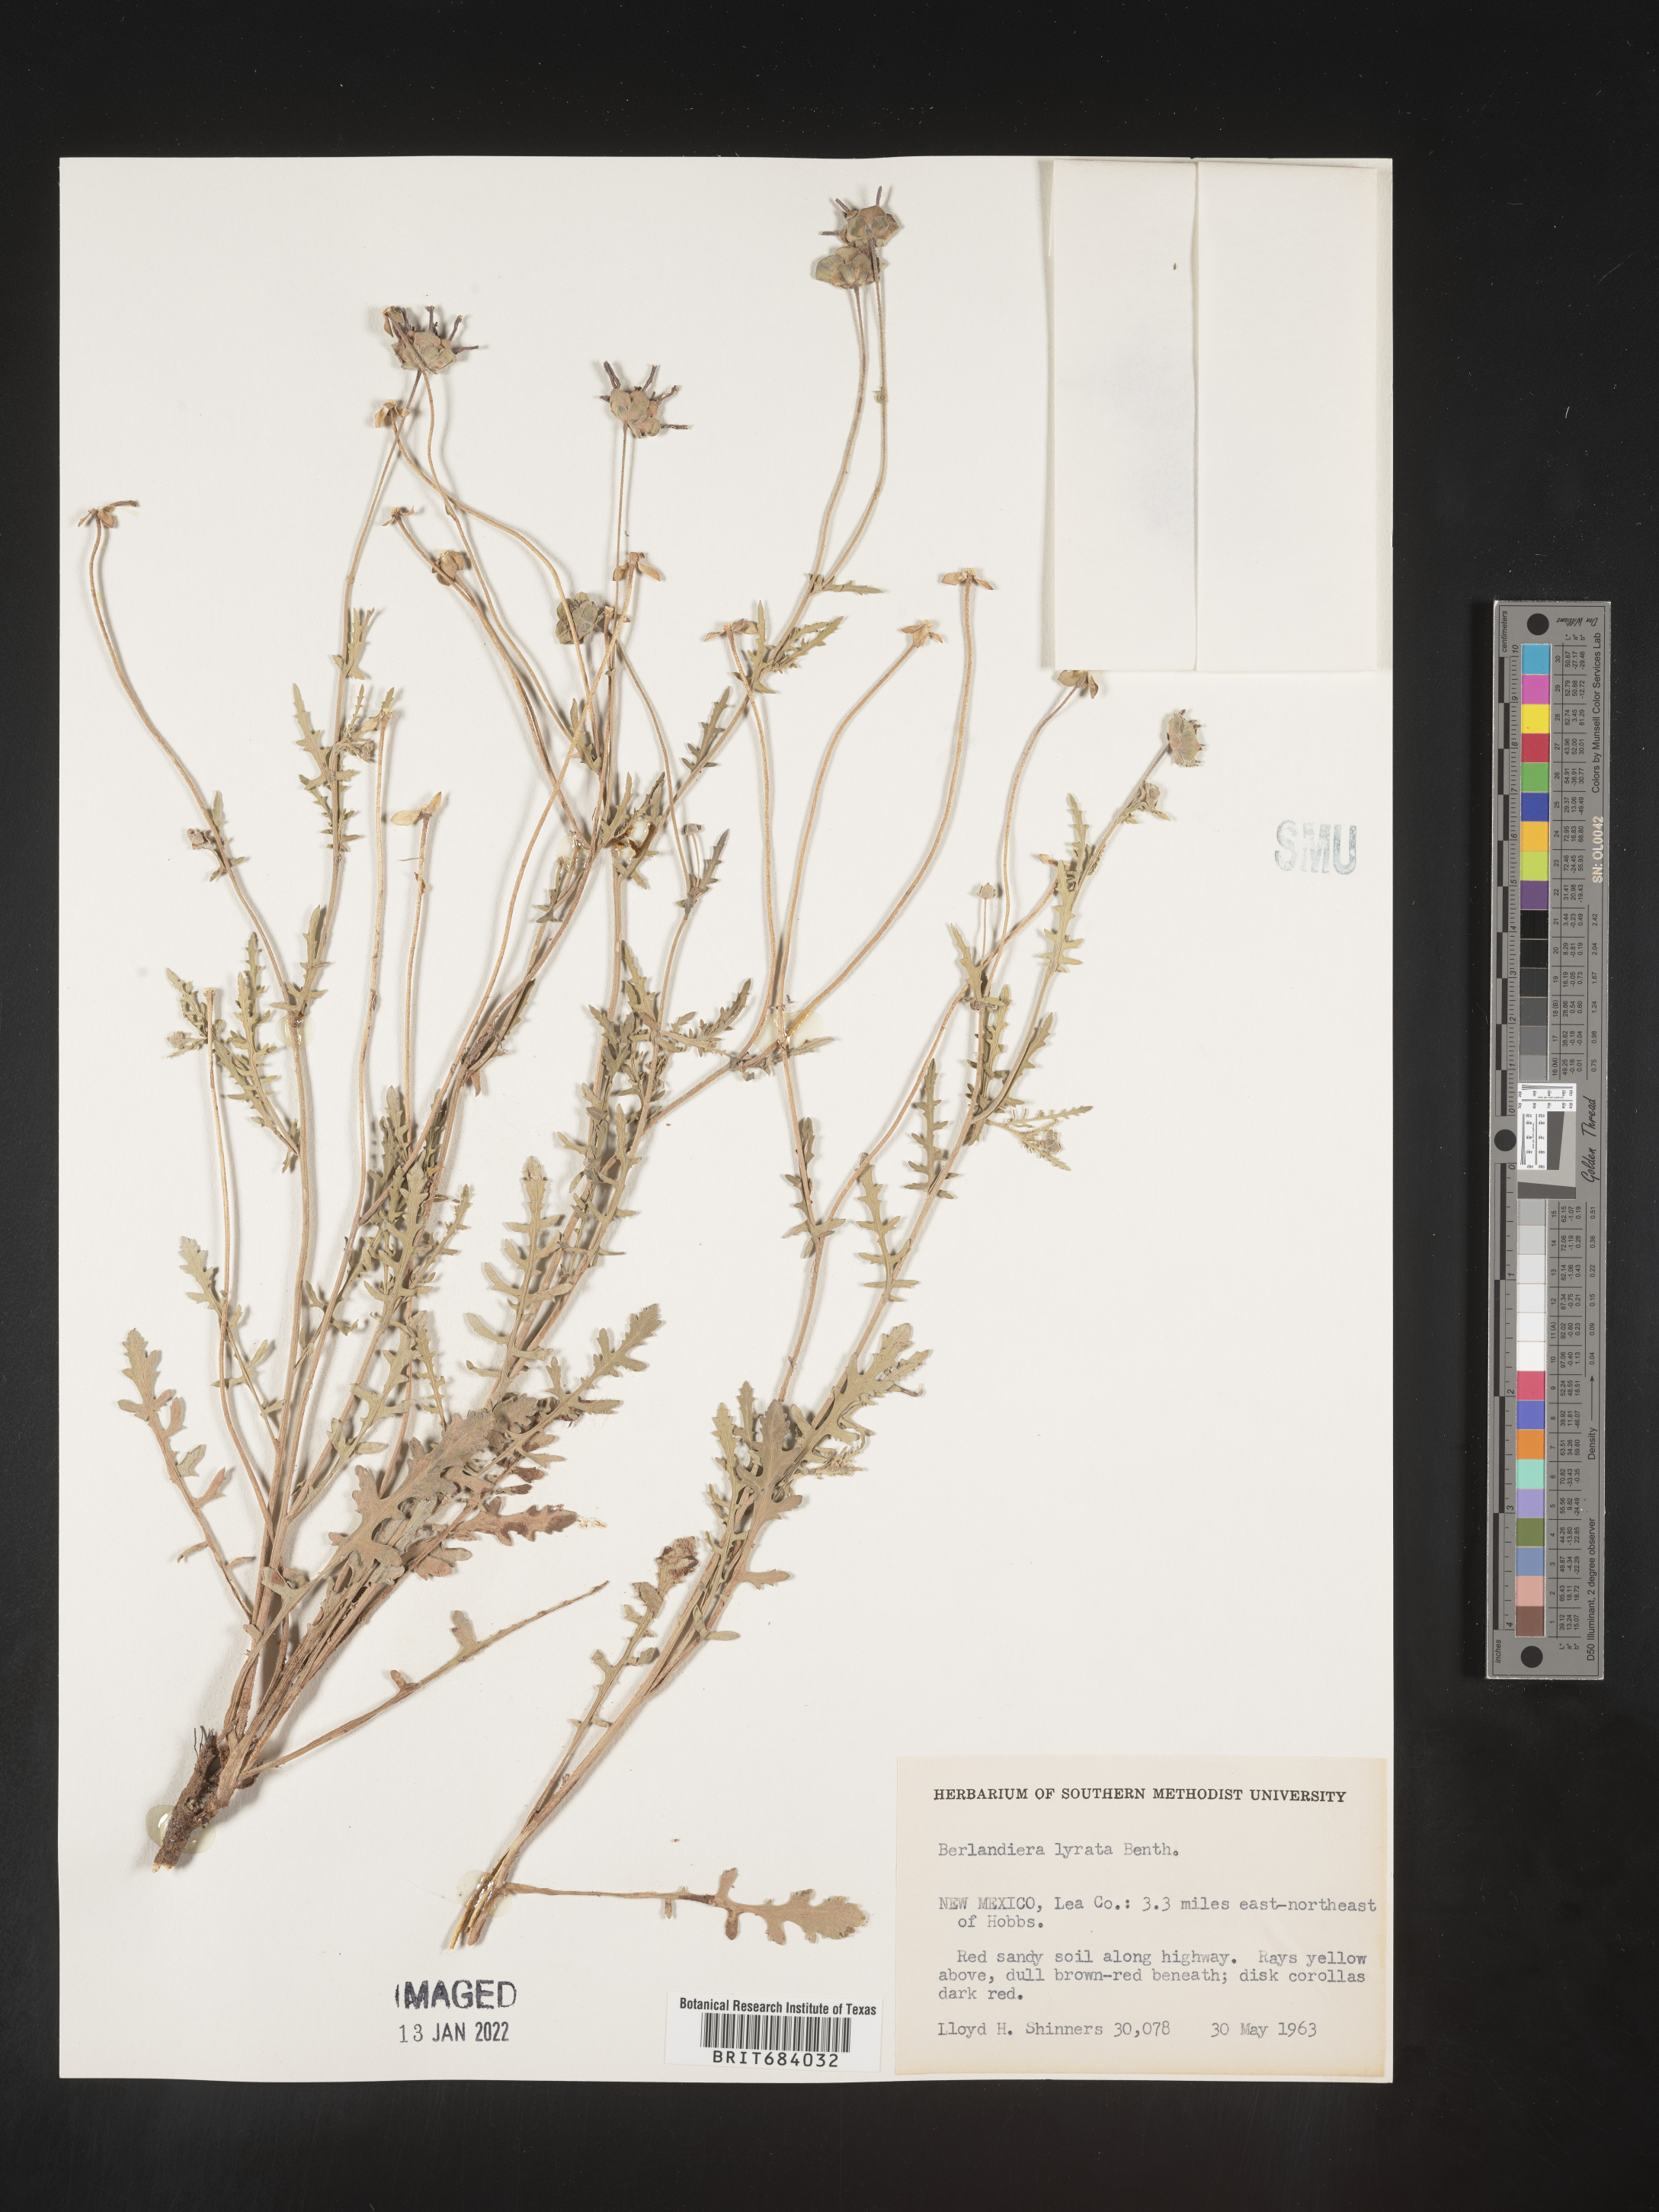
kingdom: Plantae
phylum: Tracheophyta
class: Magnoliopsida
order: Asterales
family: Asteraceae
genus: Berlandiera
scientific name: Berlandiera lyrata
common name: Chocolate-flower
